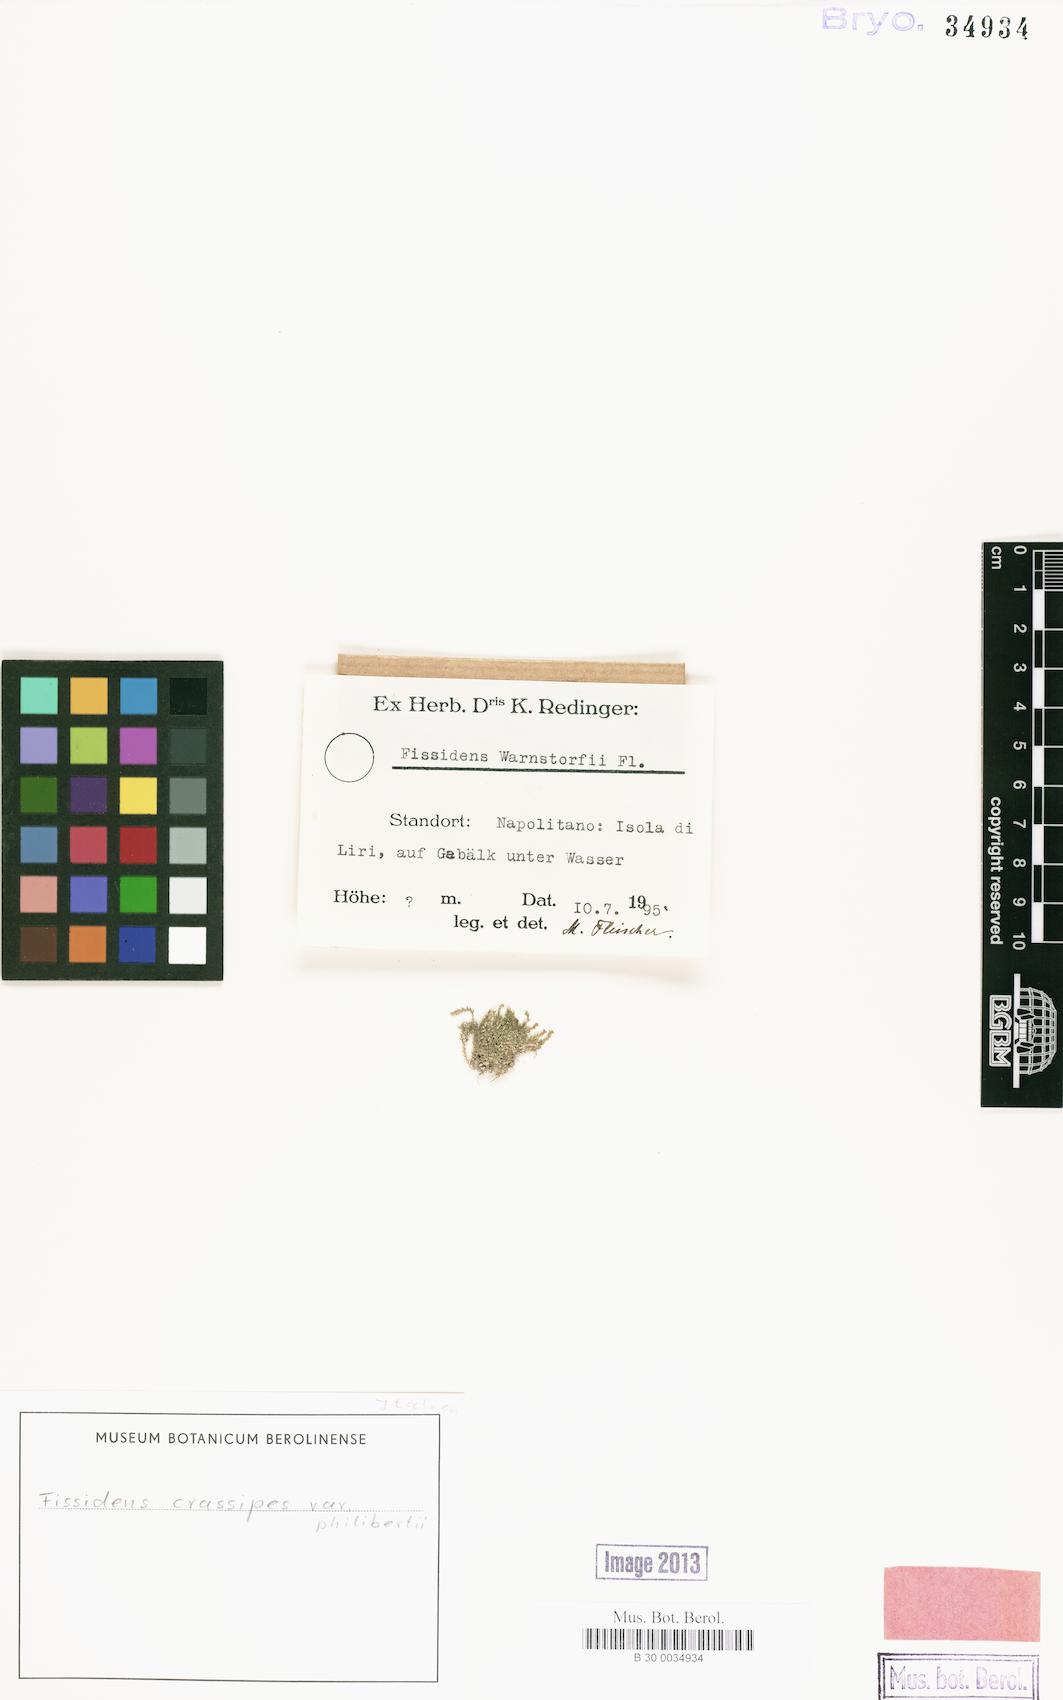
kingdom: Plantae
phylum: Bryophyta
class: Bryopsida
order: Dicranales
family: Fissidentaceae
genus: Fissidens
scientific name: Fissidens crassipes
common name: Fatfoot pocket-moss
